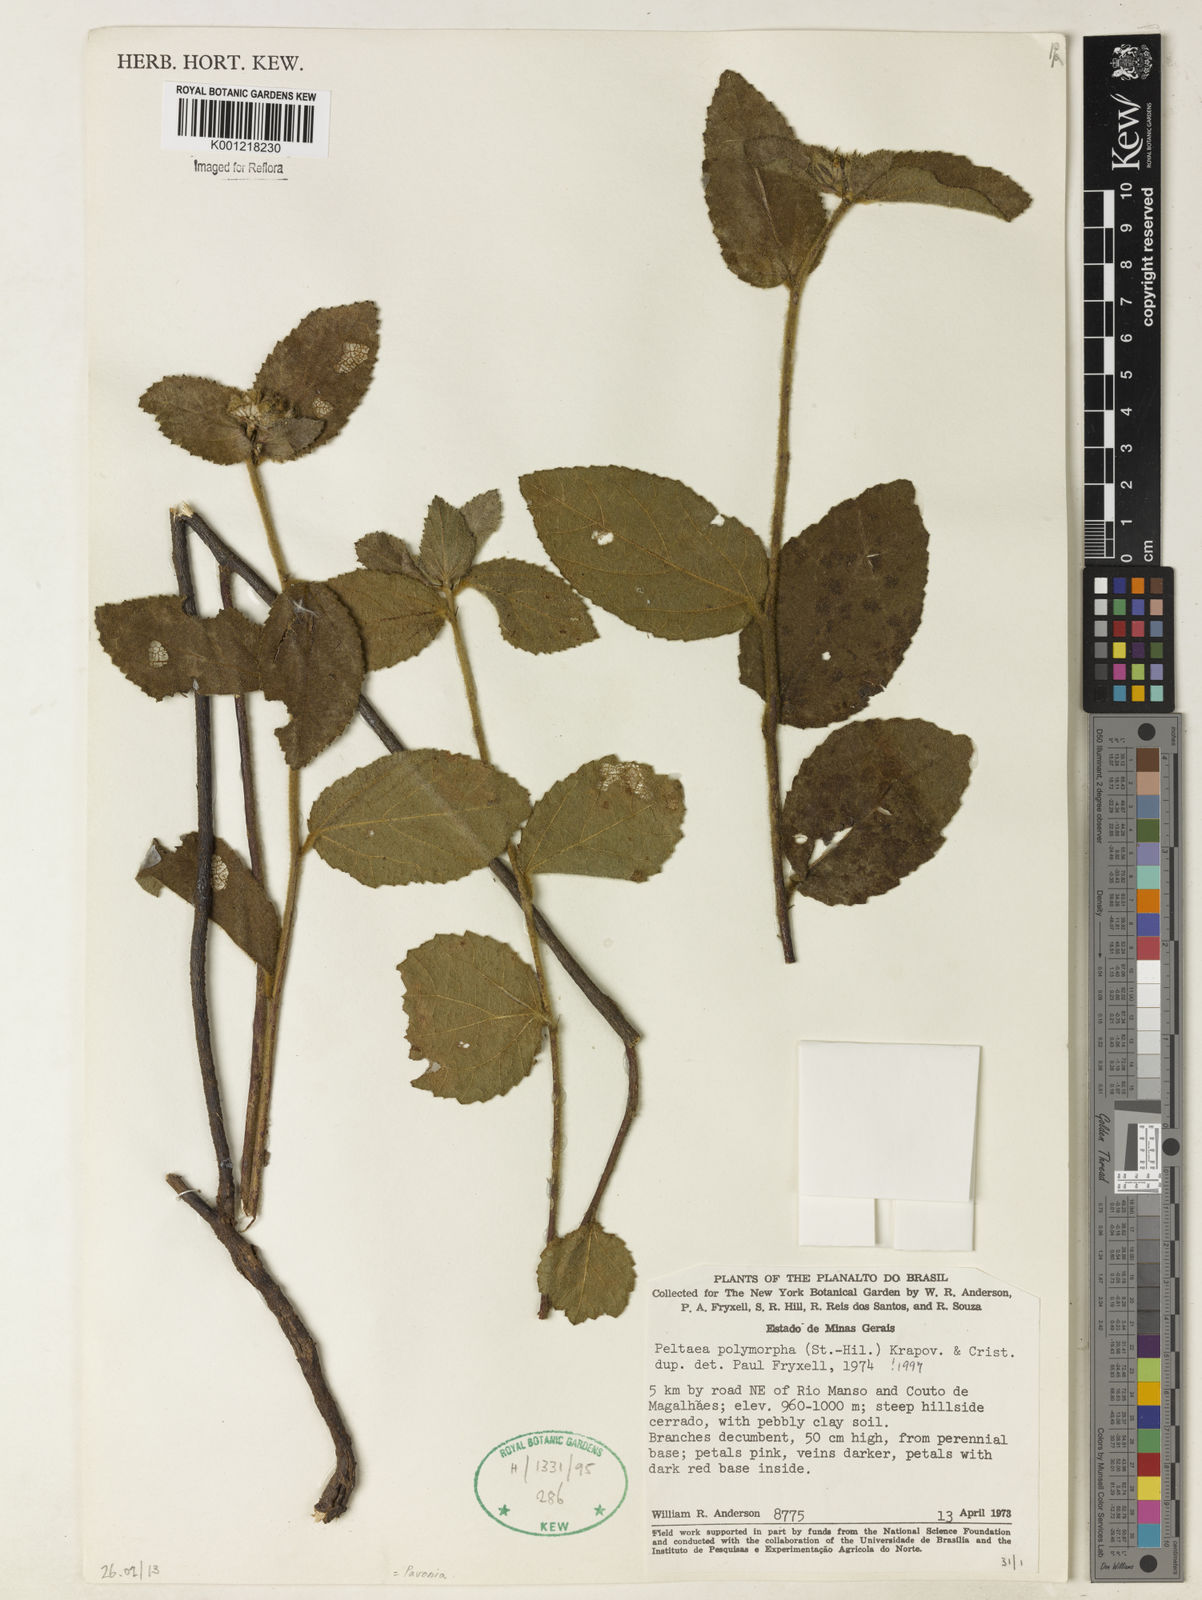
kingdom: Plantae
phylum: Tracheophyta
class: Magnoliopsida
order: Malvales
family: Malvaceae
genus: Peltaea
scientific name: Peltaea
